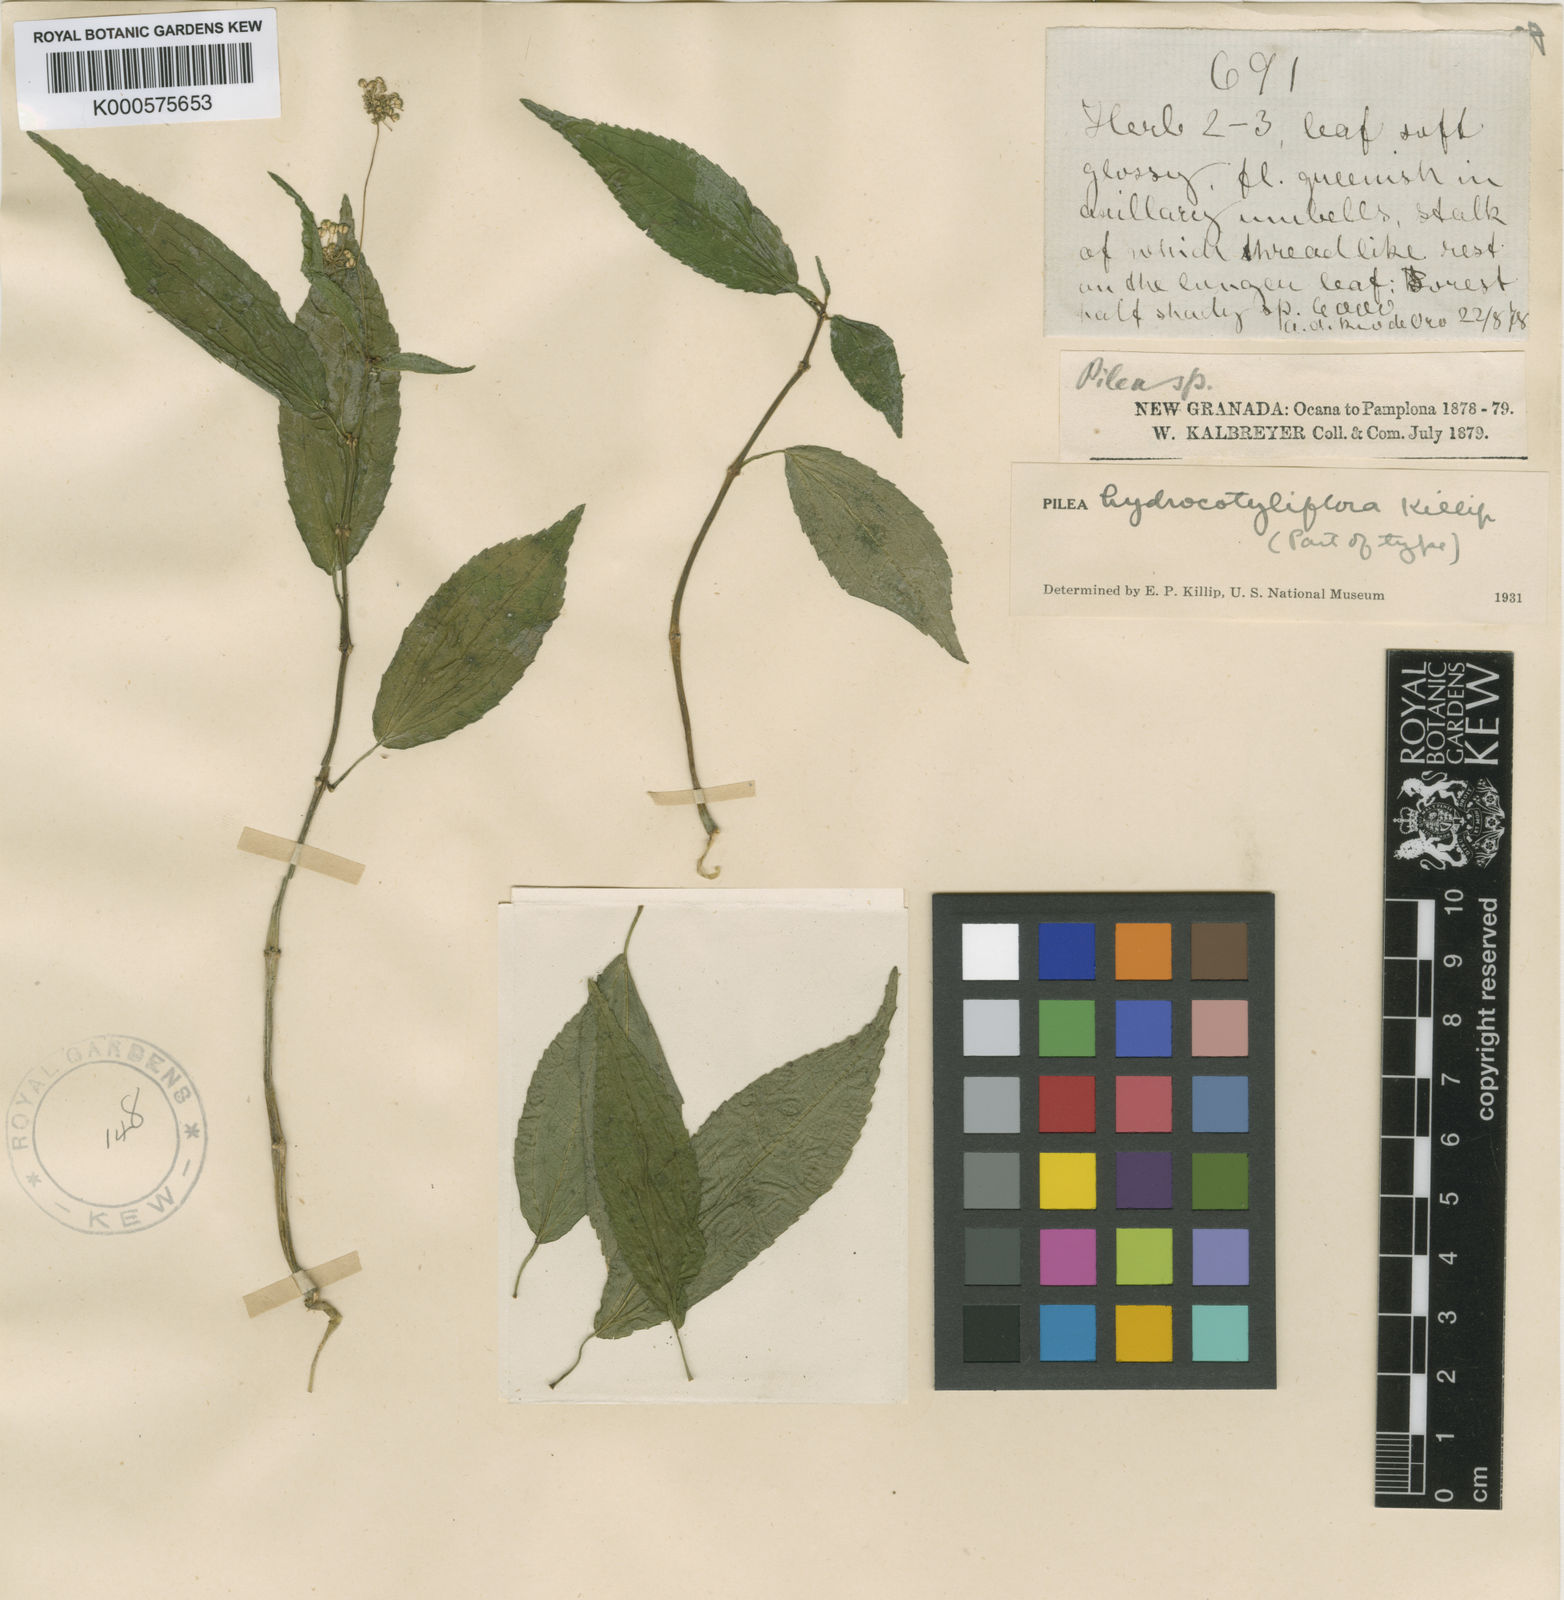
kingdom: Plantae
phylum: Tracheophyta
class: Magnoliopsida
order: Rosales
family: Urticaceae
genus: Pilea
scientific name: Pilea hydrocotyliflora
